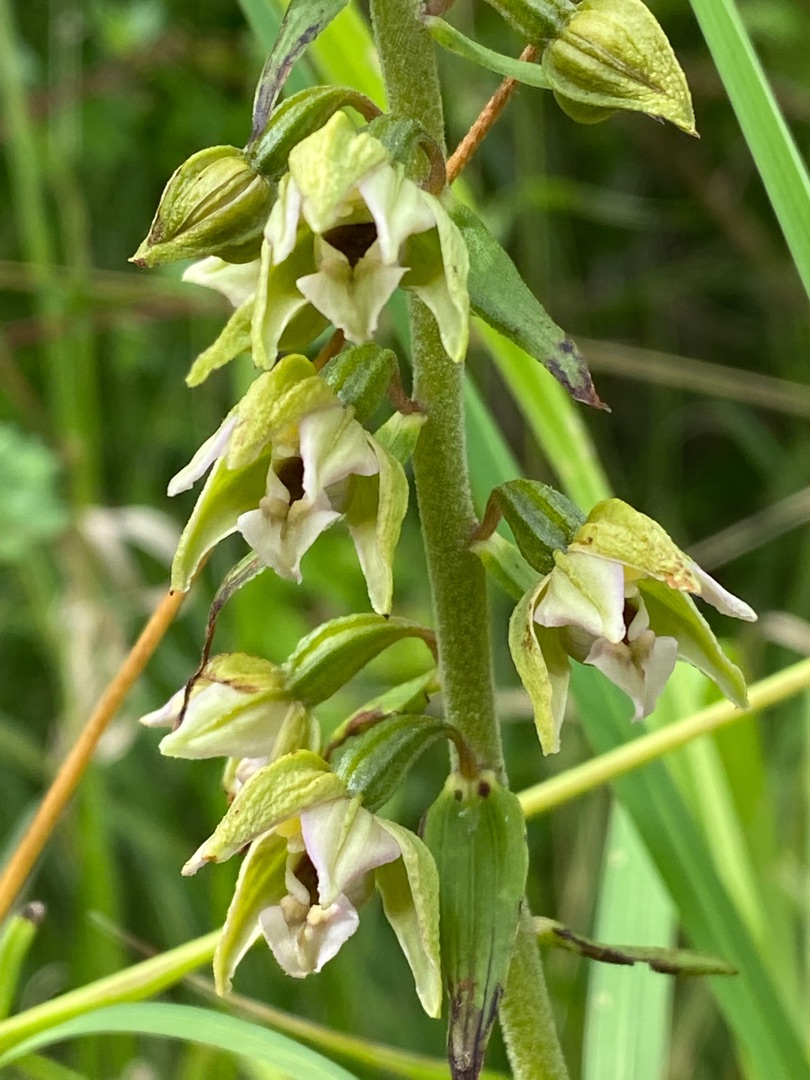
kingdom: Plantae
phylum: Tracheophyta
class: Liliopsida
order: Asparagales
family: Orchidaceae
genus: Epipactis
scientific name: Epipactis helleborine
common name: Skov-hullæbe
